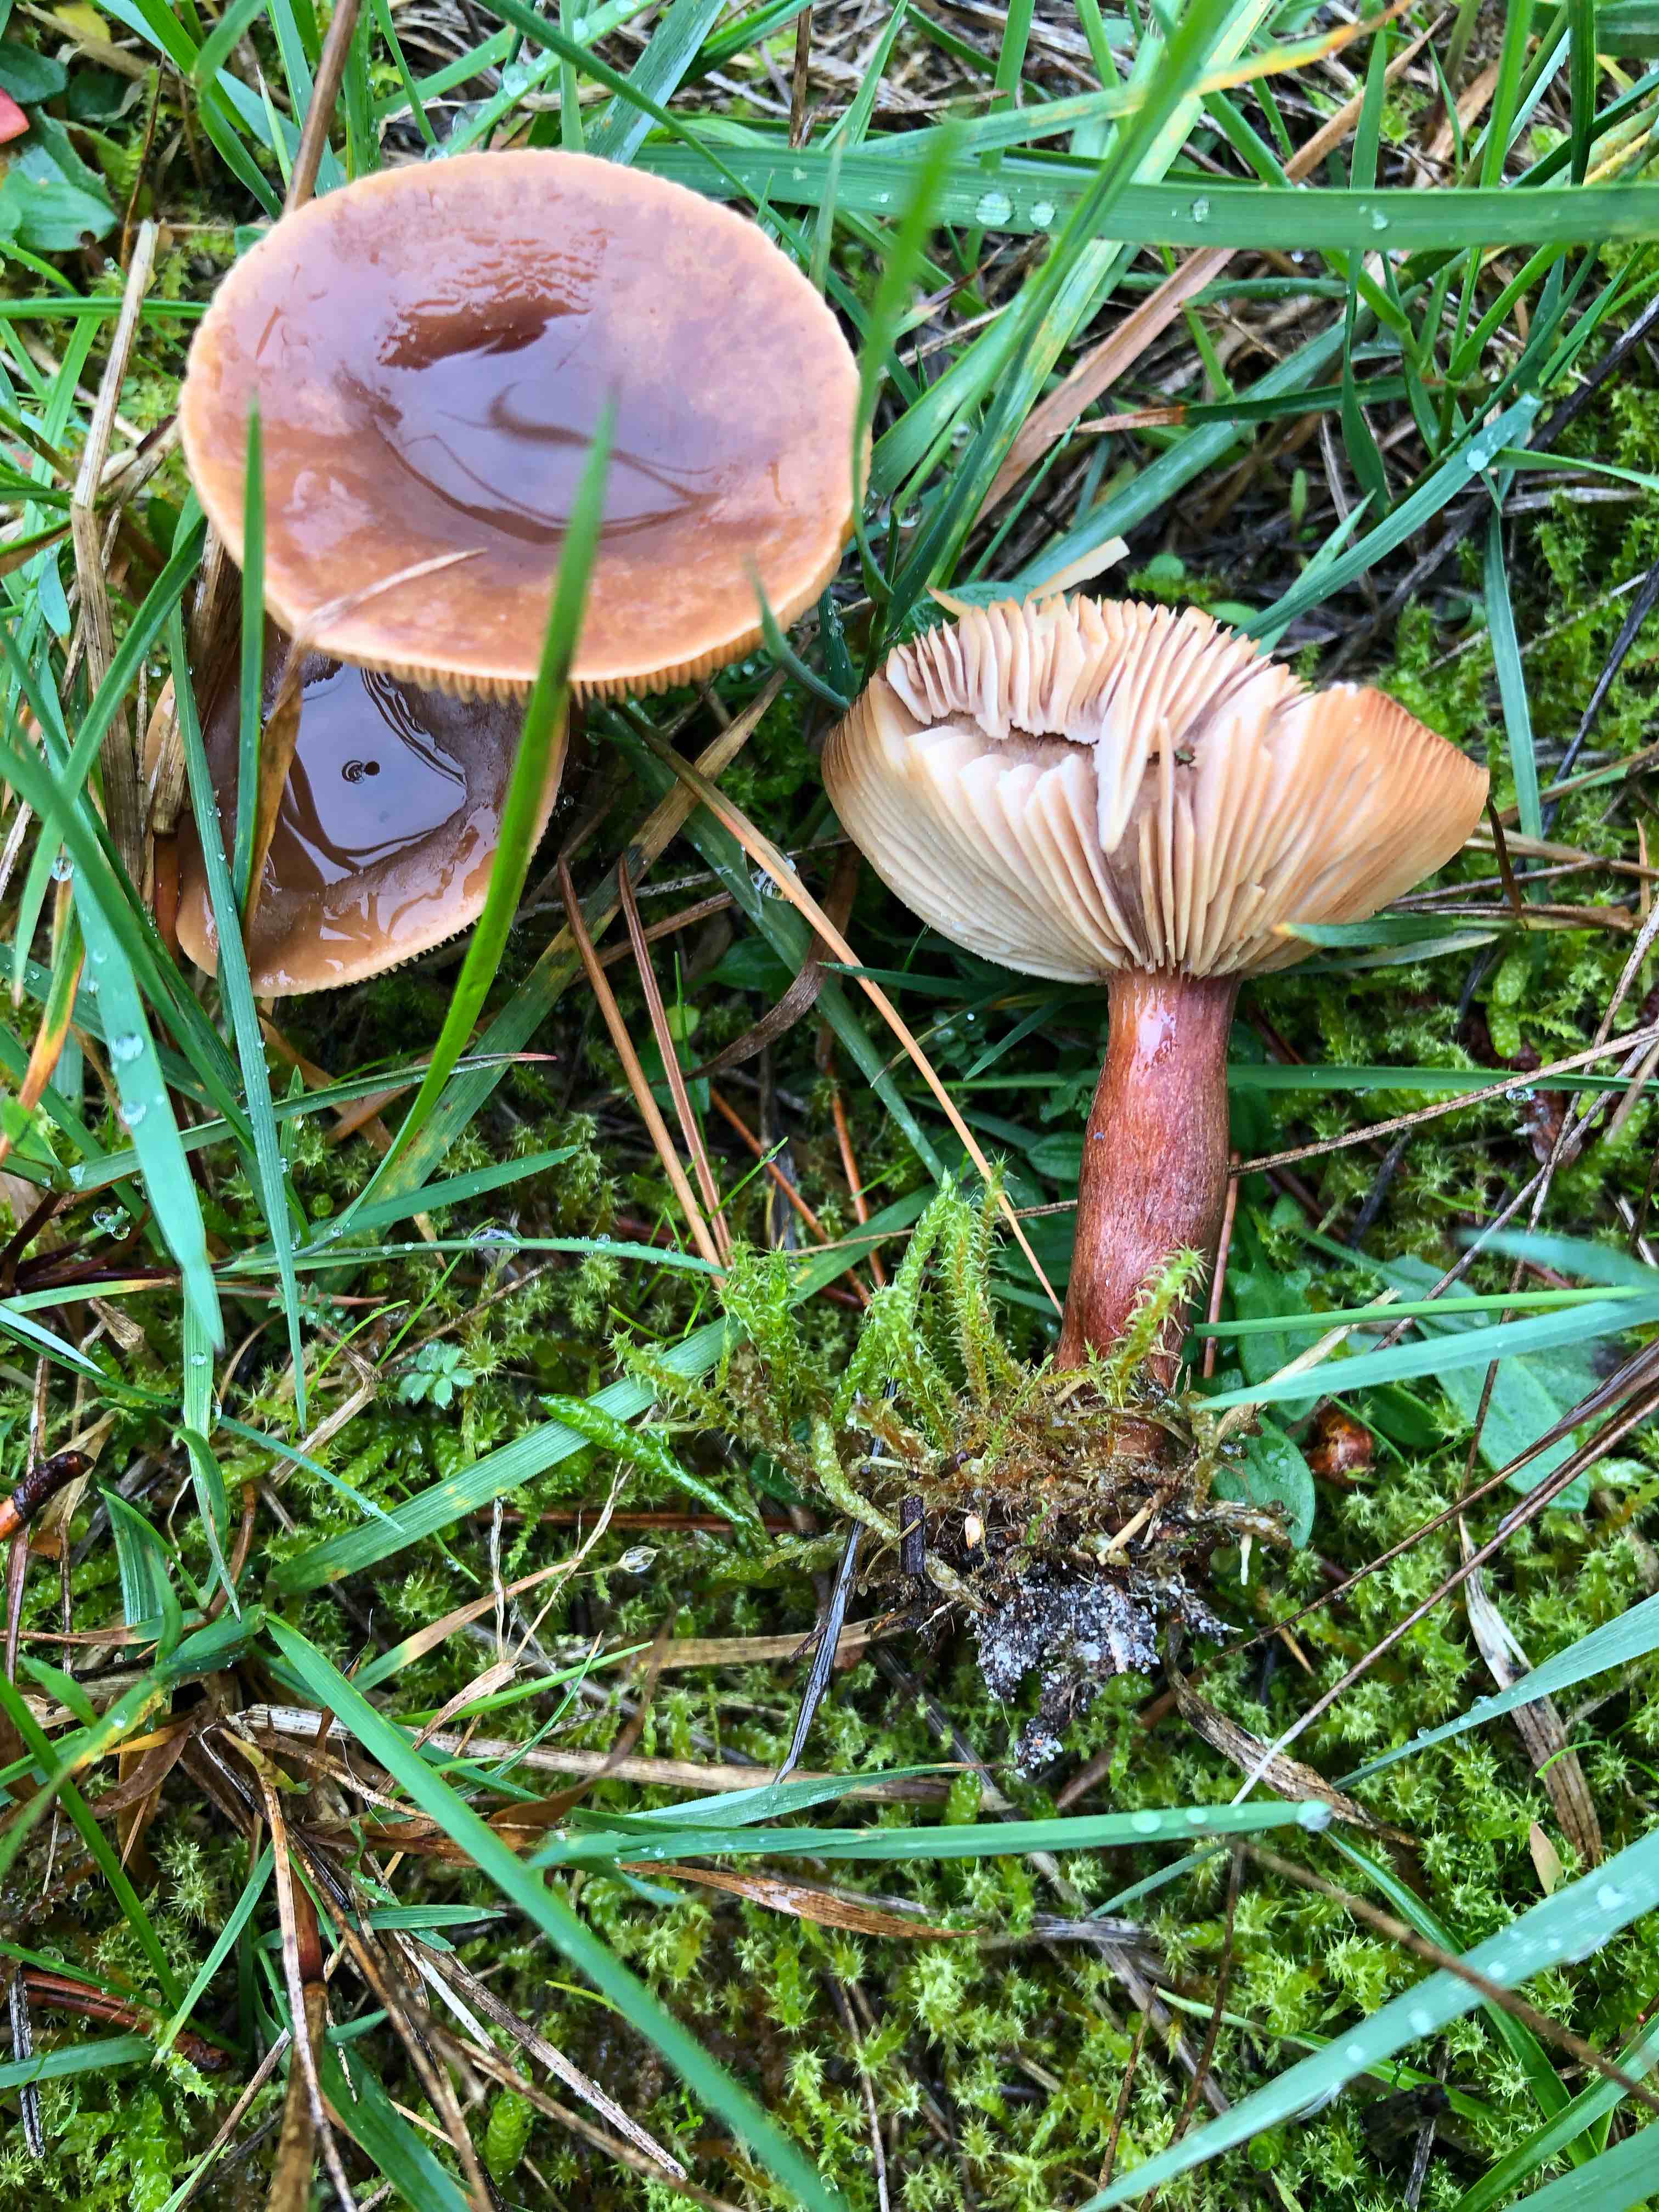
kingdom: Fungi
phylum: Basidiomycota
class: Agaricomycetes
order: Russulales
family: Russulaceae
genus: Lactarius
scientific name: Lactarius hepaticus
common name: leverbrun mælkehat
